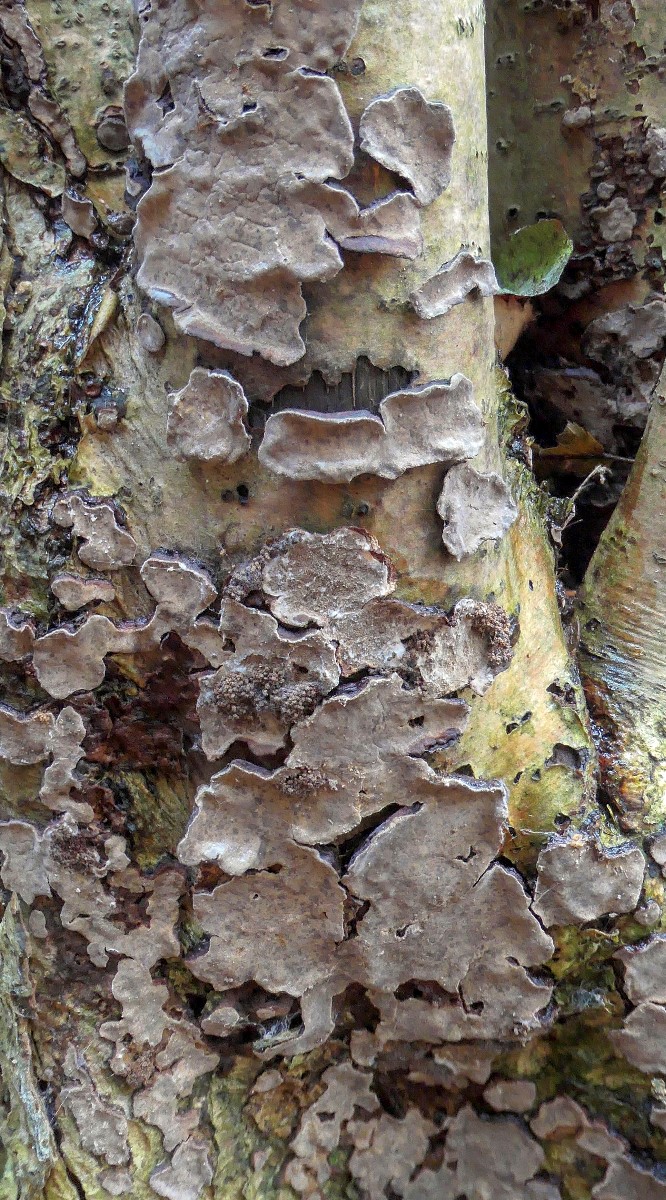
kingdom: Fungi
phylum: Basidiomycota
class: Agaricomycetes
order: Russulales
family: Stereaceae
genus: Stereum
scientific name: Stereum rugosum
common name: rynket lædersvamp
